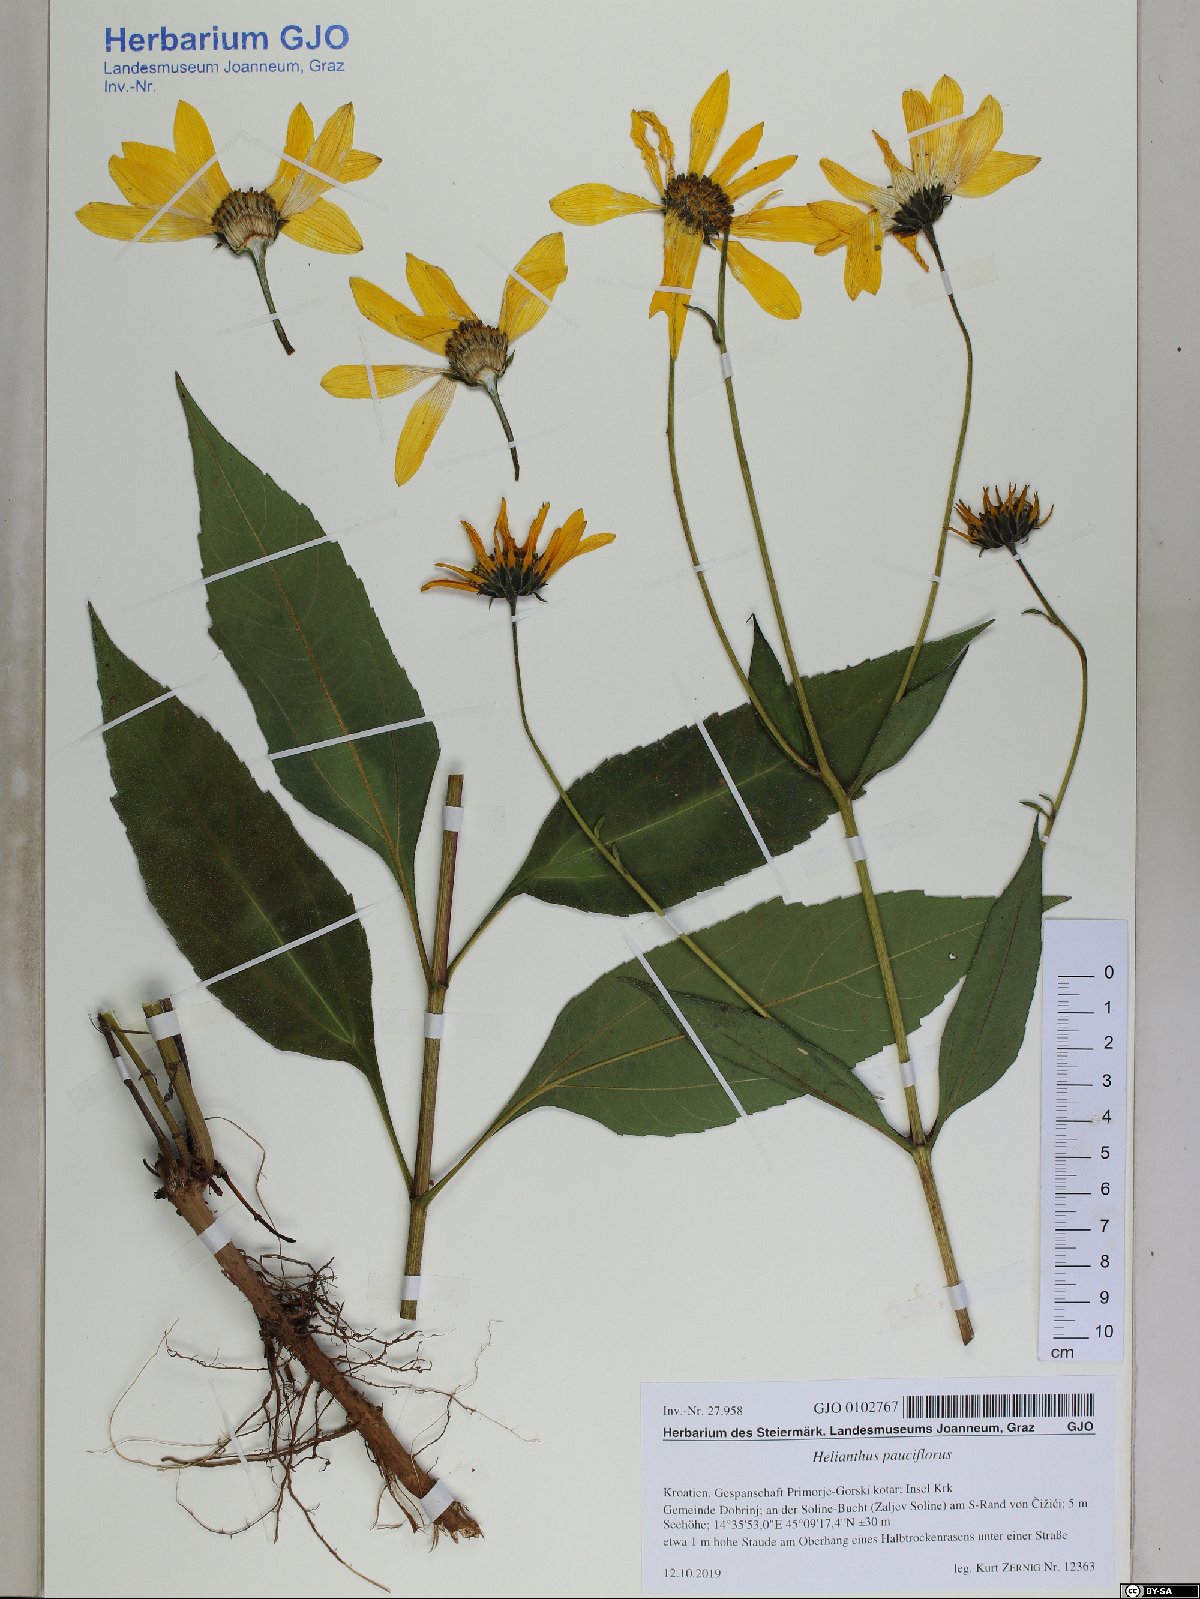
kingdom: Plantae
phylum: Tracheophyta
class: Magnoliopsida
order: Asterales
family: Asteraceae
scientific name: Asteraceae
